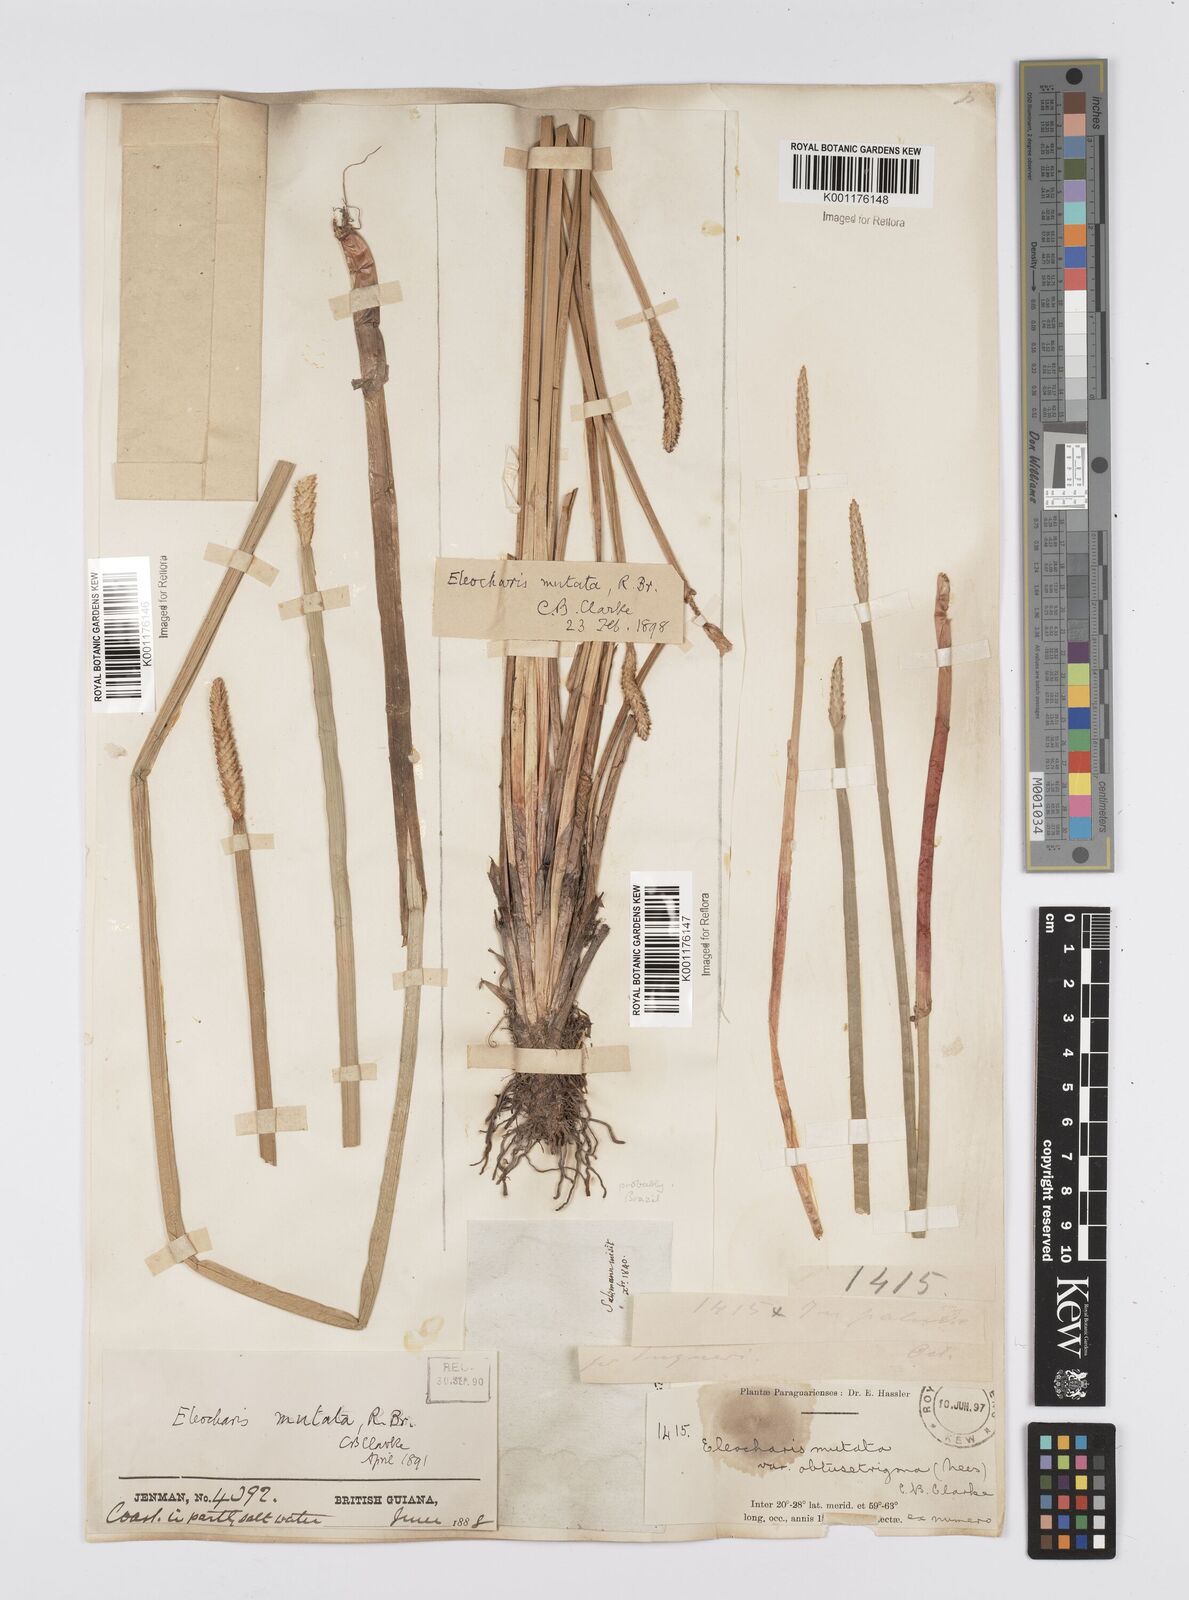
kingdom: Plantae
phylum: Tracheophyta
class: Liliopsida
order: Poales
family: Cyperaceae
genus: Eleocharis
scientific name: Eleocharis acutangula
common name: Acute spikerush
